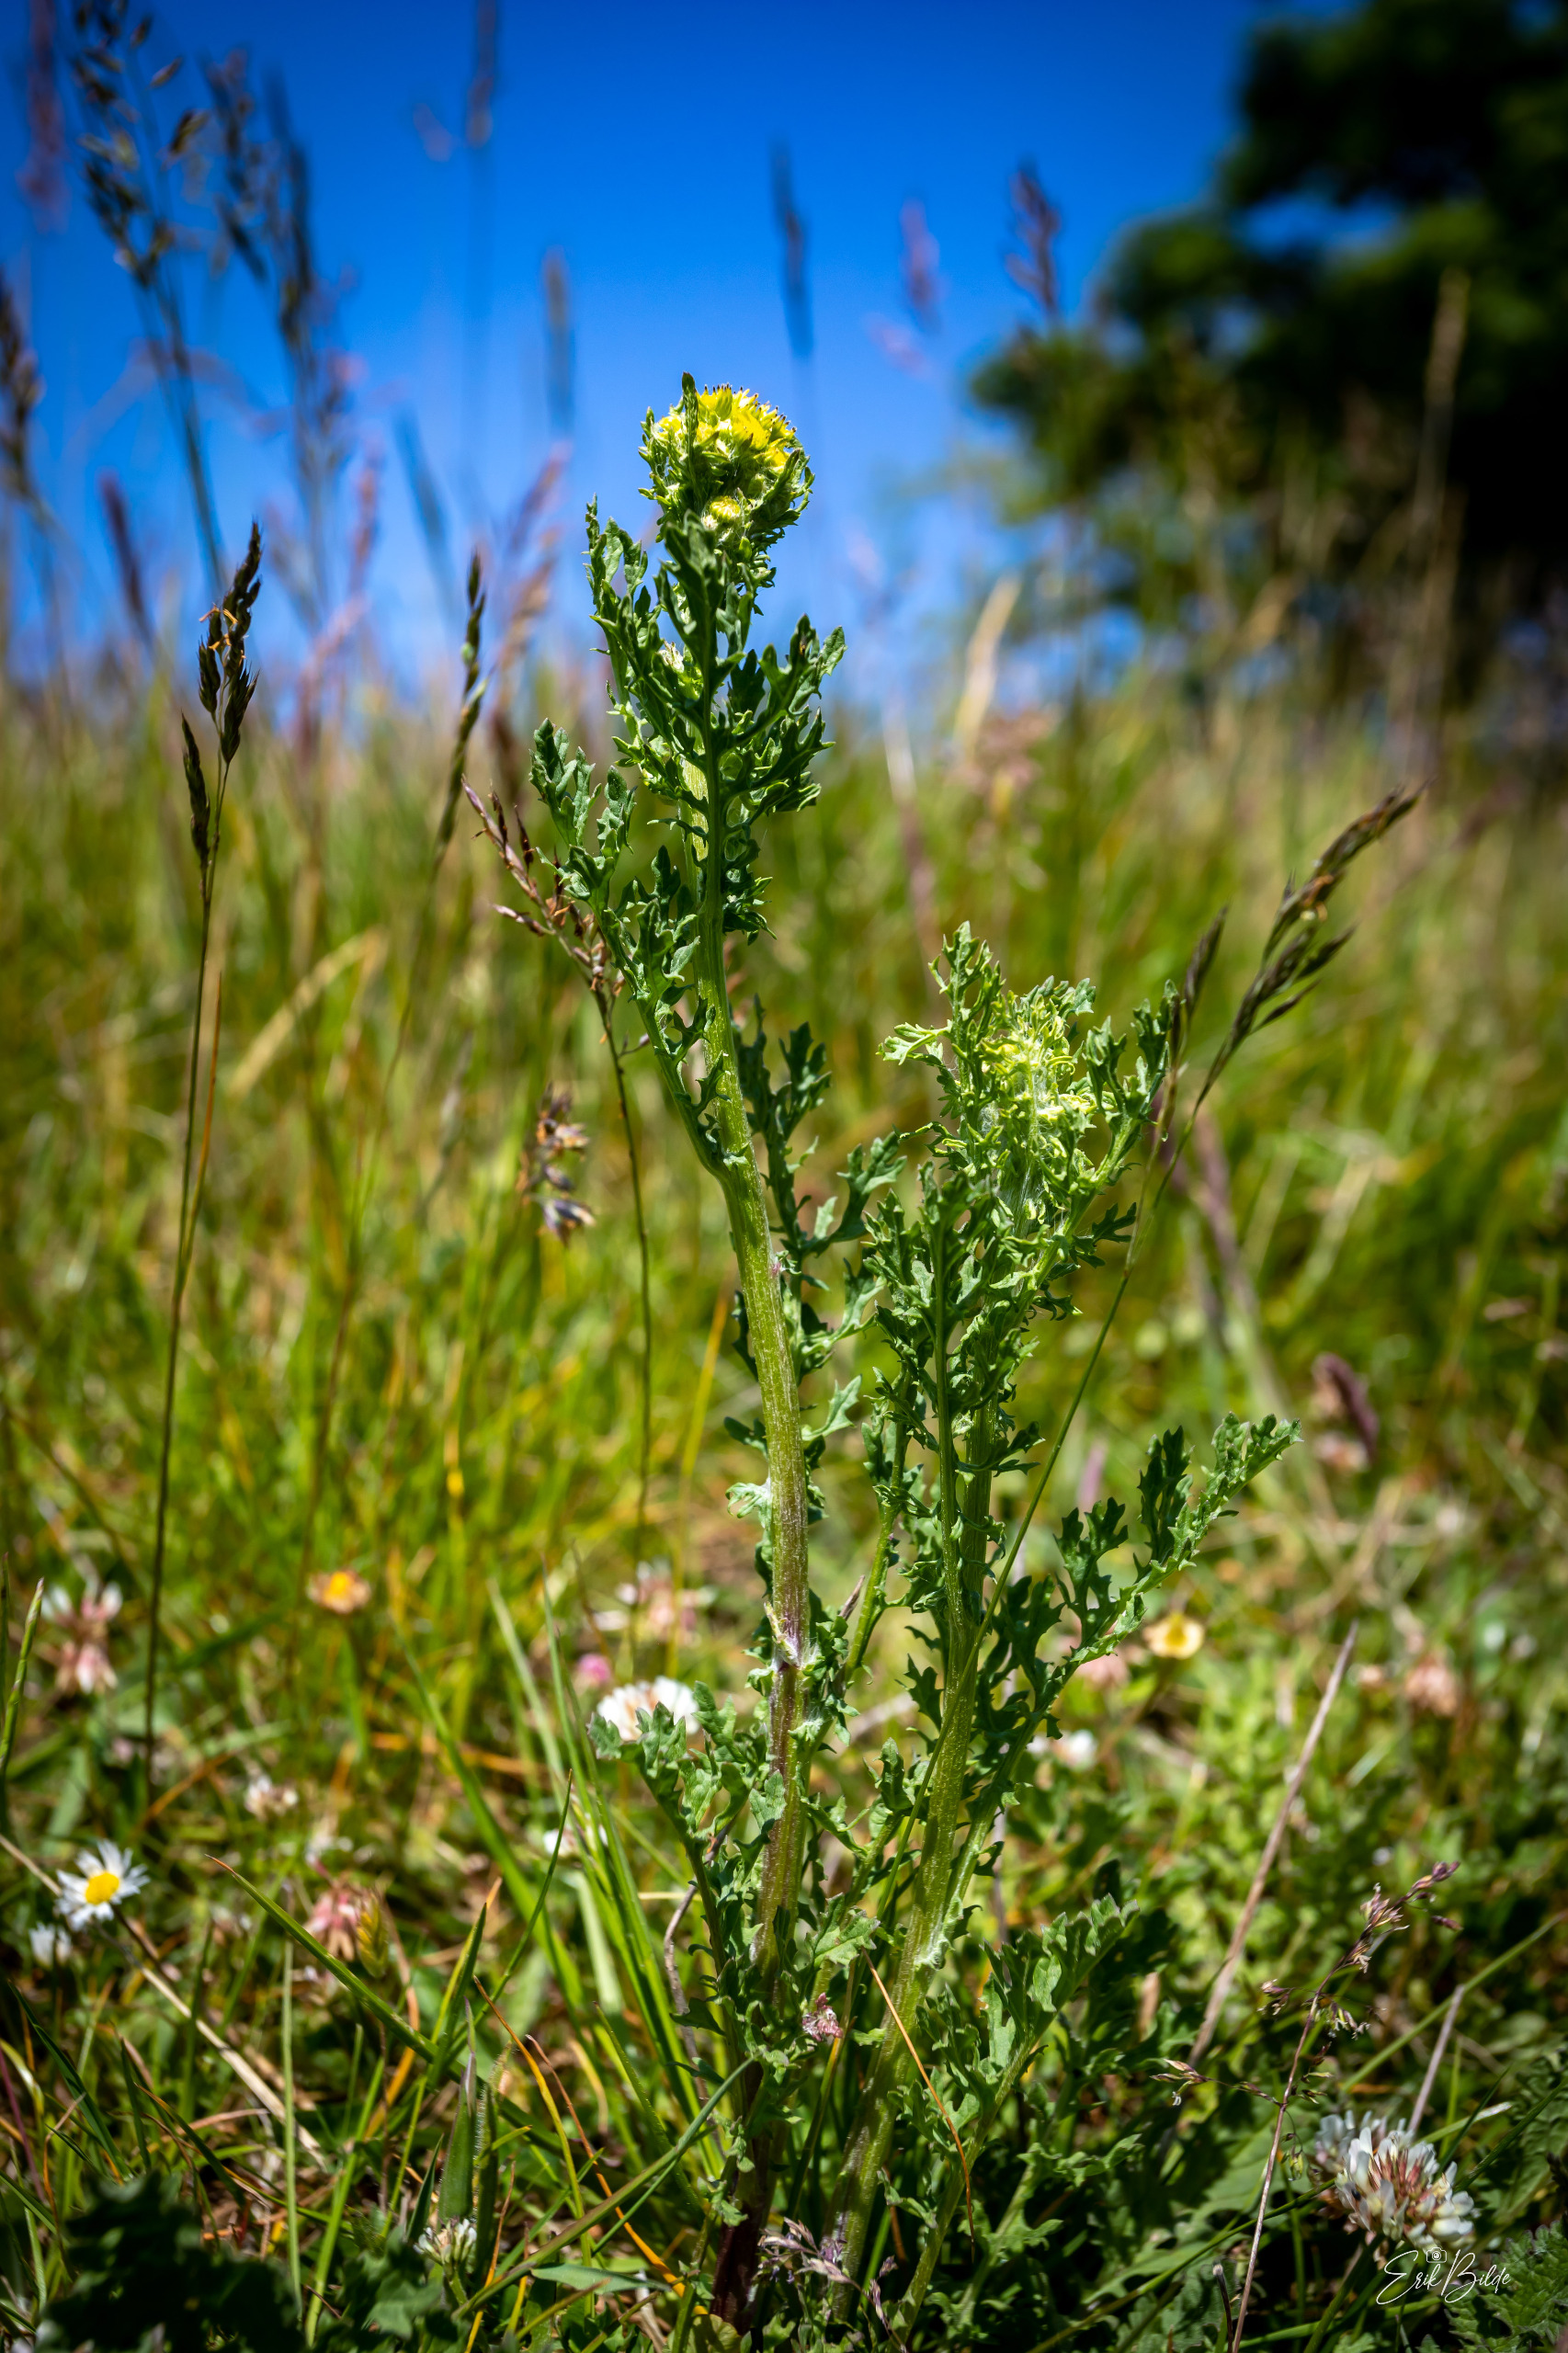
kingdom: Plantae
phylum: Tracheophyta
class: Magnoliopsida
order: Asterales
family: Asteraceae
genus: Jacobaea
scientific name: Jacobaea vulgaris
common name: Eng-brandbæger
